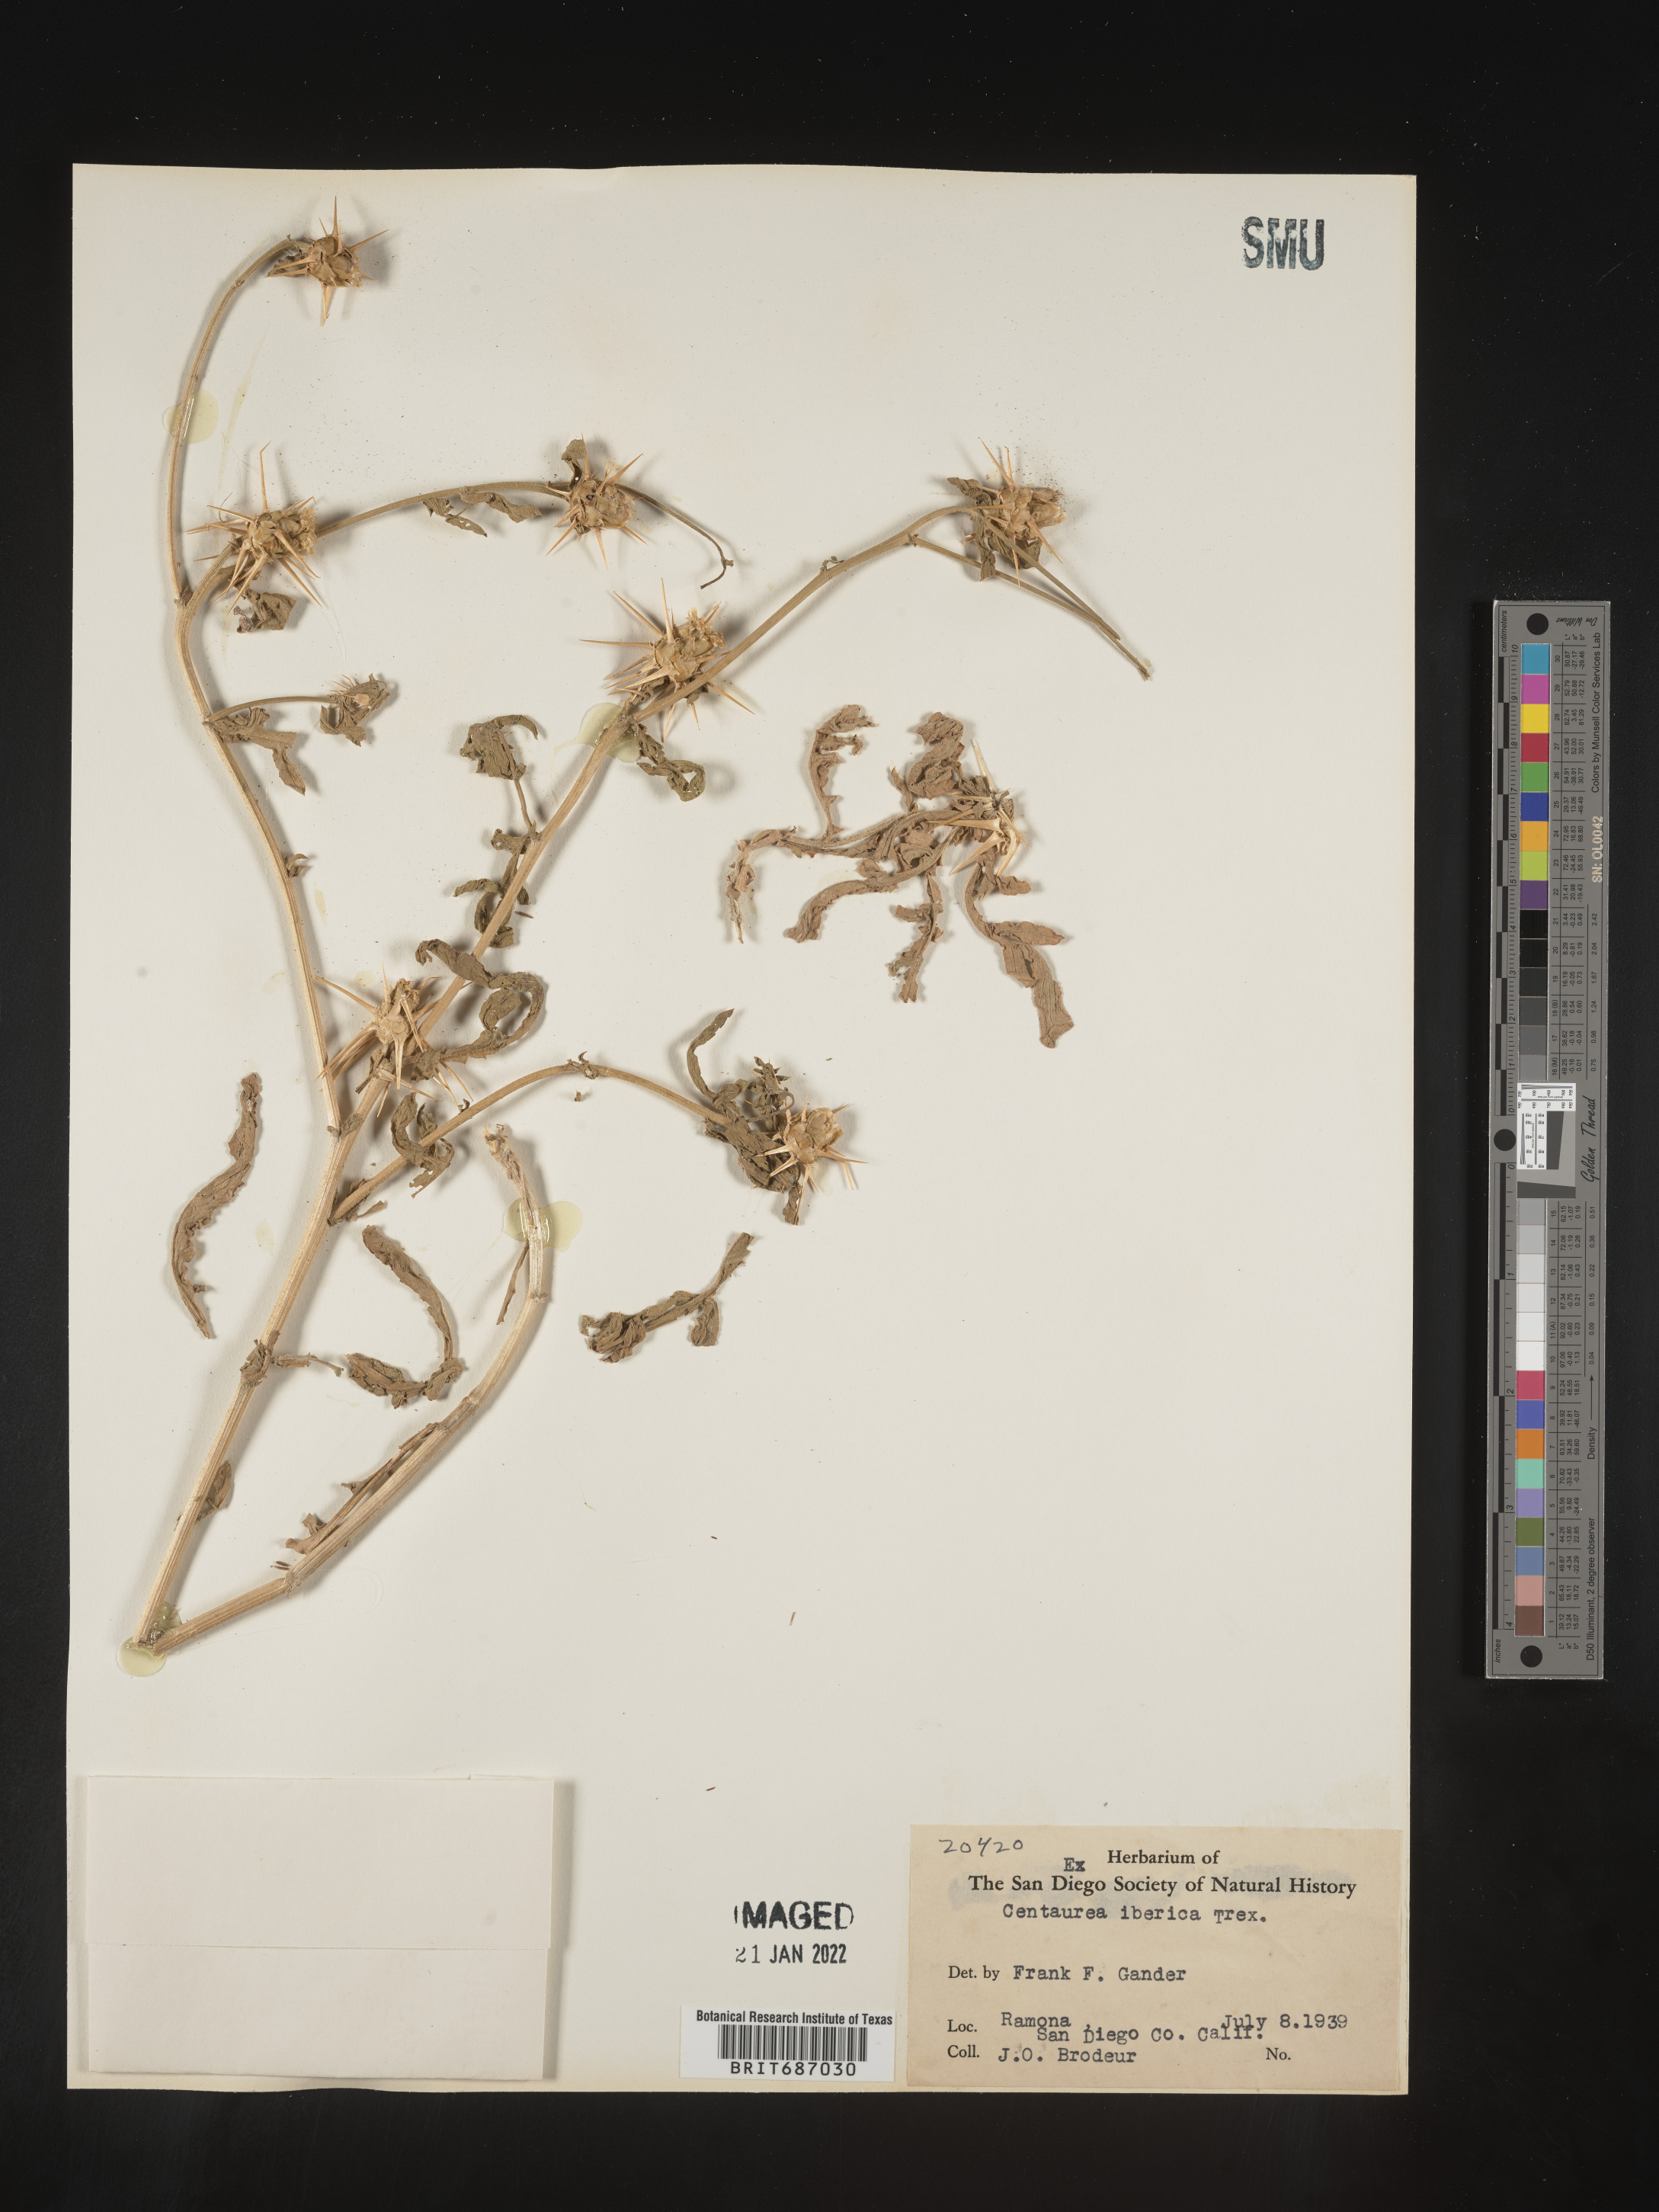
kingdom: Plantae
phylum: Tracheophyta
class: Magnoliopsida
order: Asterales
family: Asteraceae
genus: Centaurea
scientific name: Centaurea iberica
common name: Iberian knapweed
